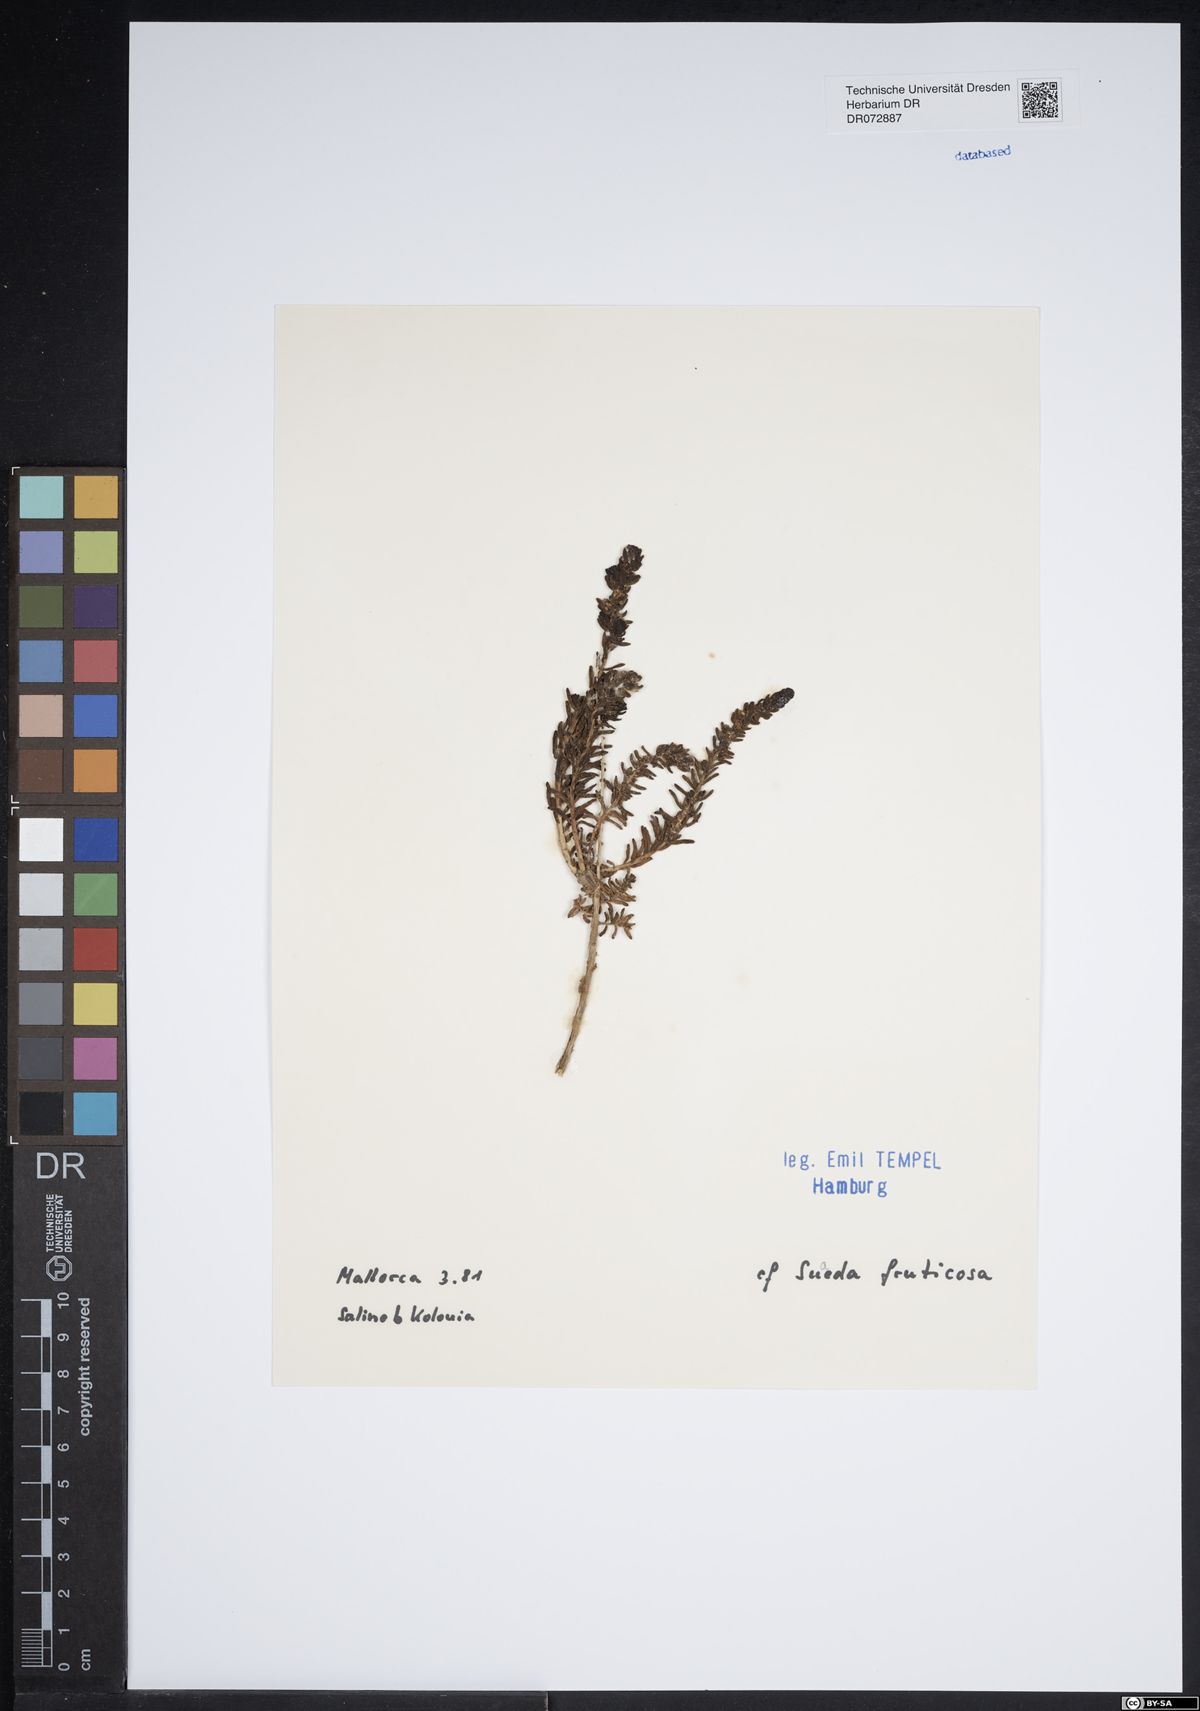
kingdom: Plantae
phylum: Tracheophyta
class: Magnoliopsida
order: Caryophyllales
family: Amaranthaceae
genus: Suaeda
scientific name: Suaeda fruticosa
